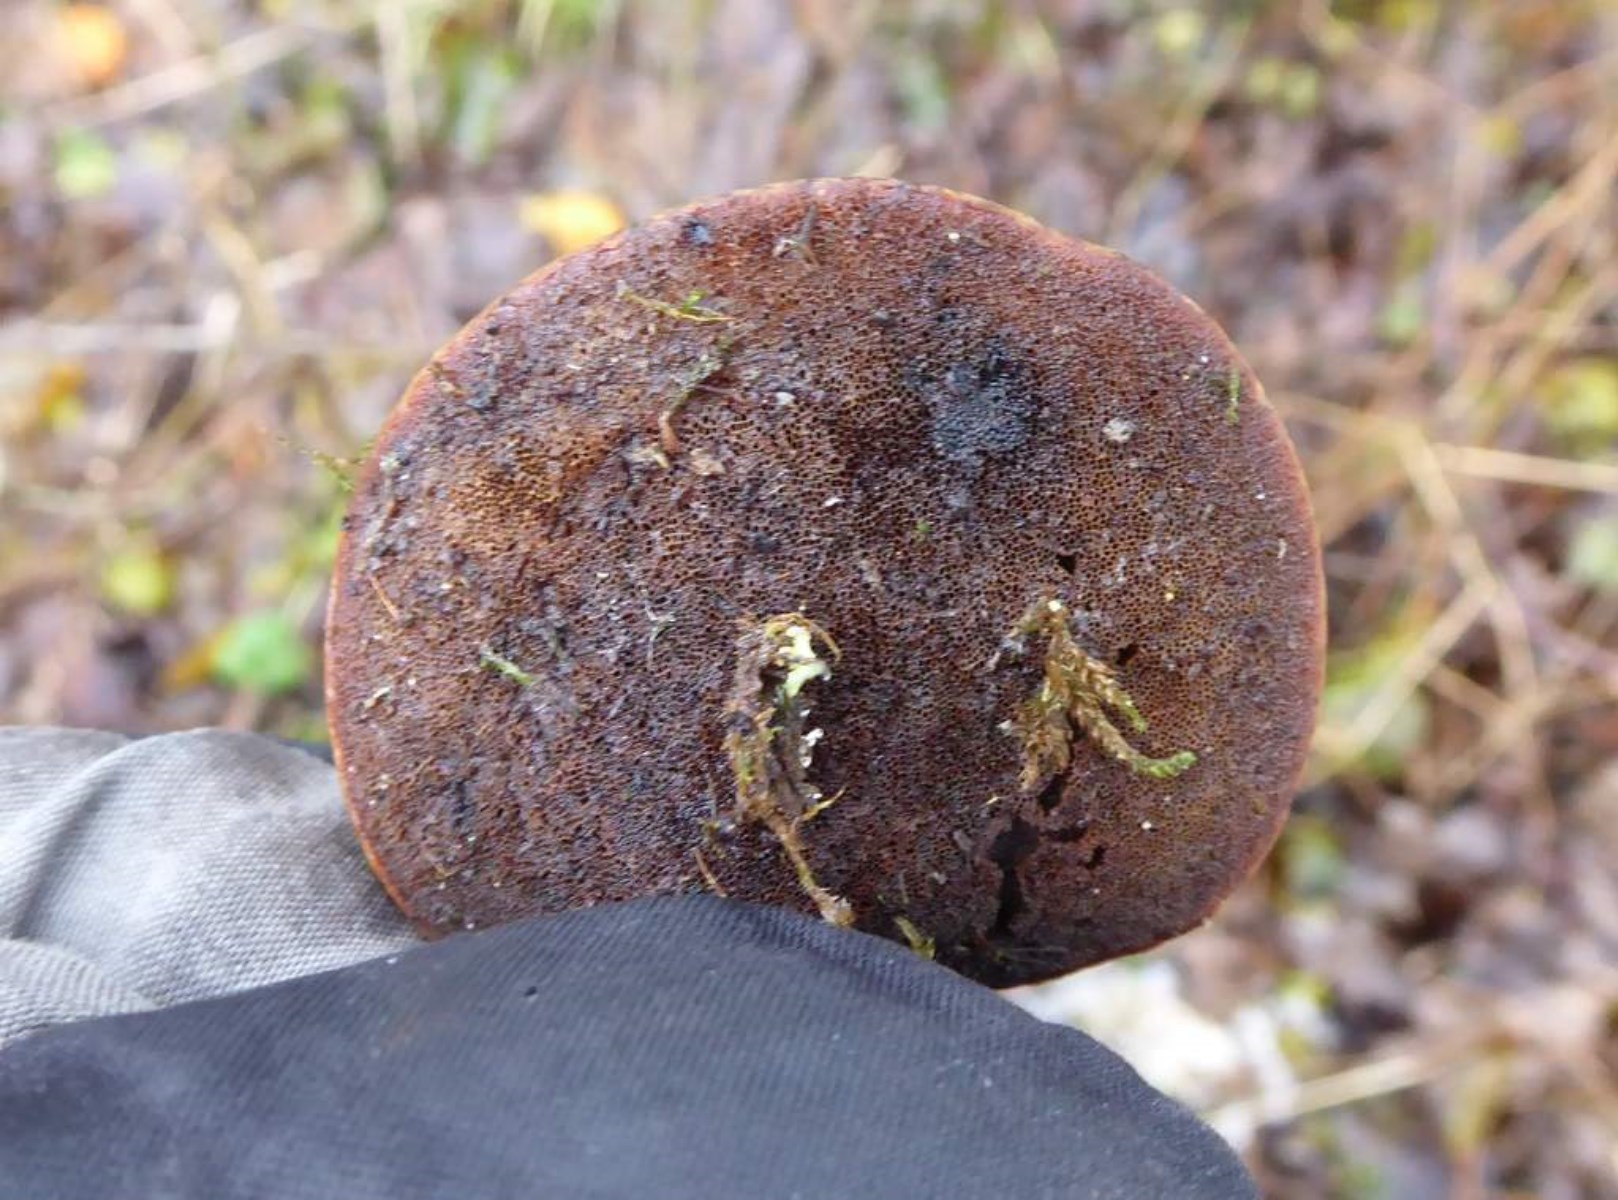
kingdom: Fungi
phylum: Basidiomycota
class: Agaricomycetes
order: Polyporales
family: Polyporaceae
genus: Cerioporus
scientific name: Cerioporus varius
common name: foranderlig stilkporesvamp
